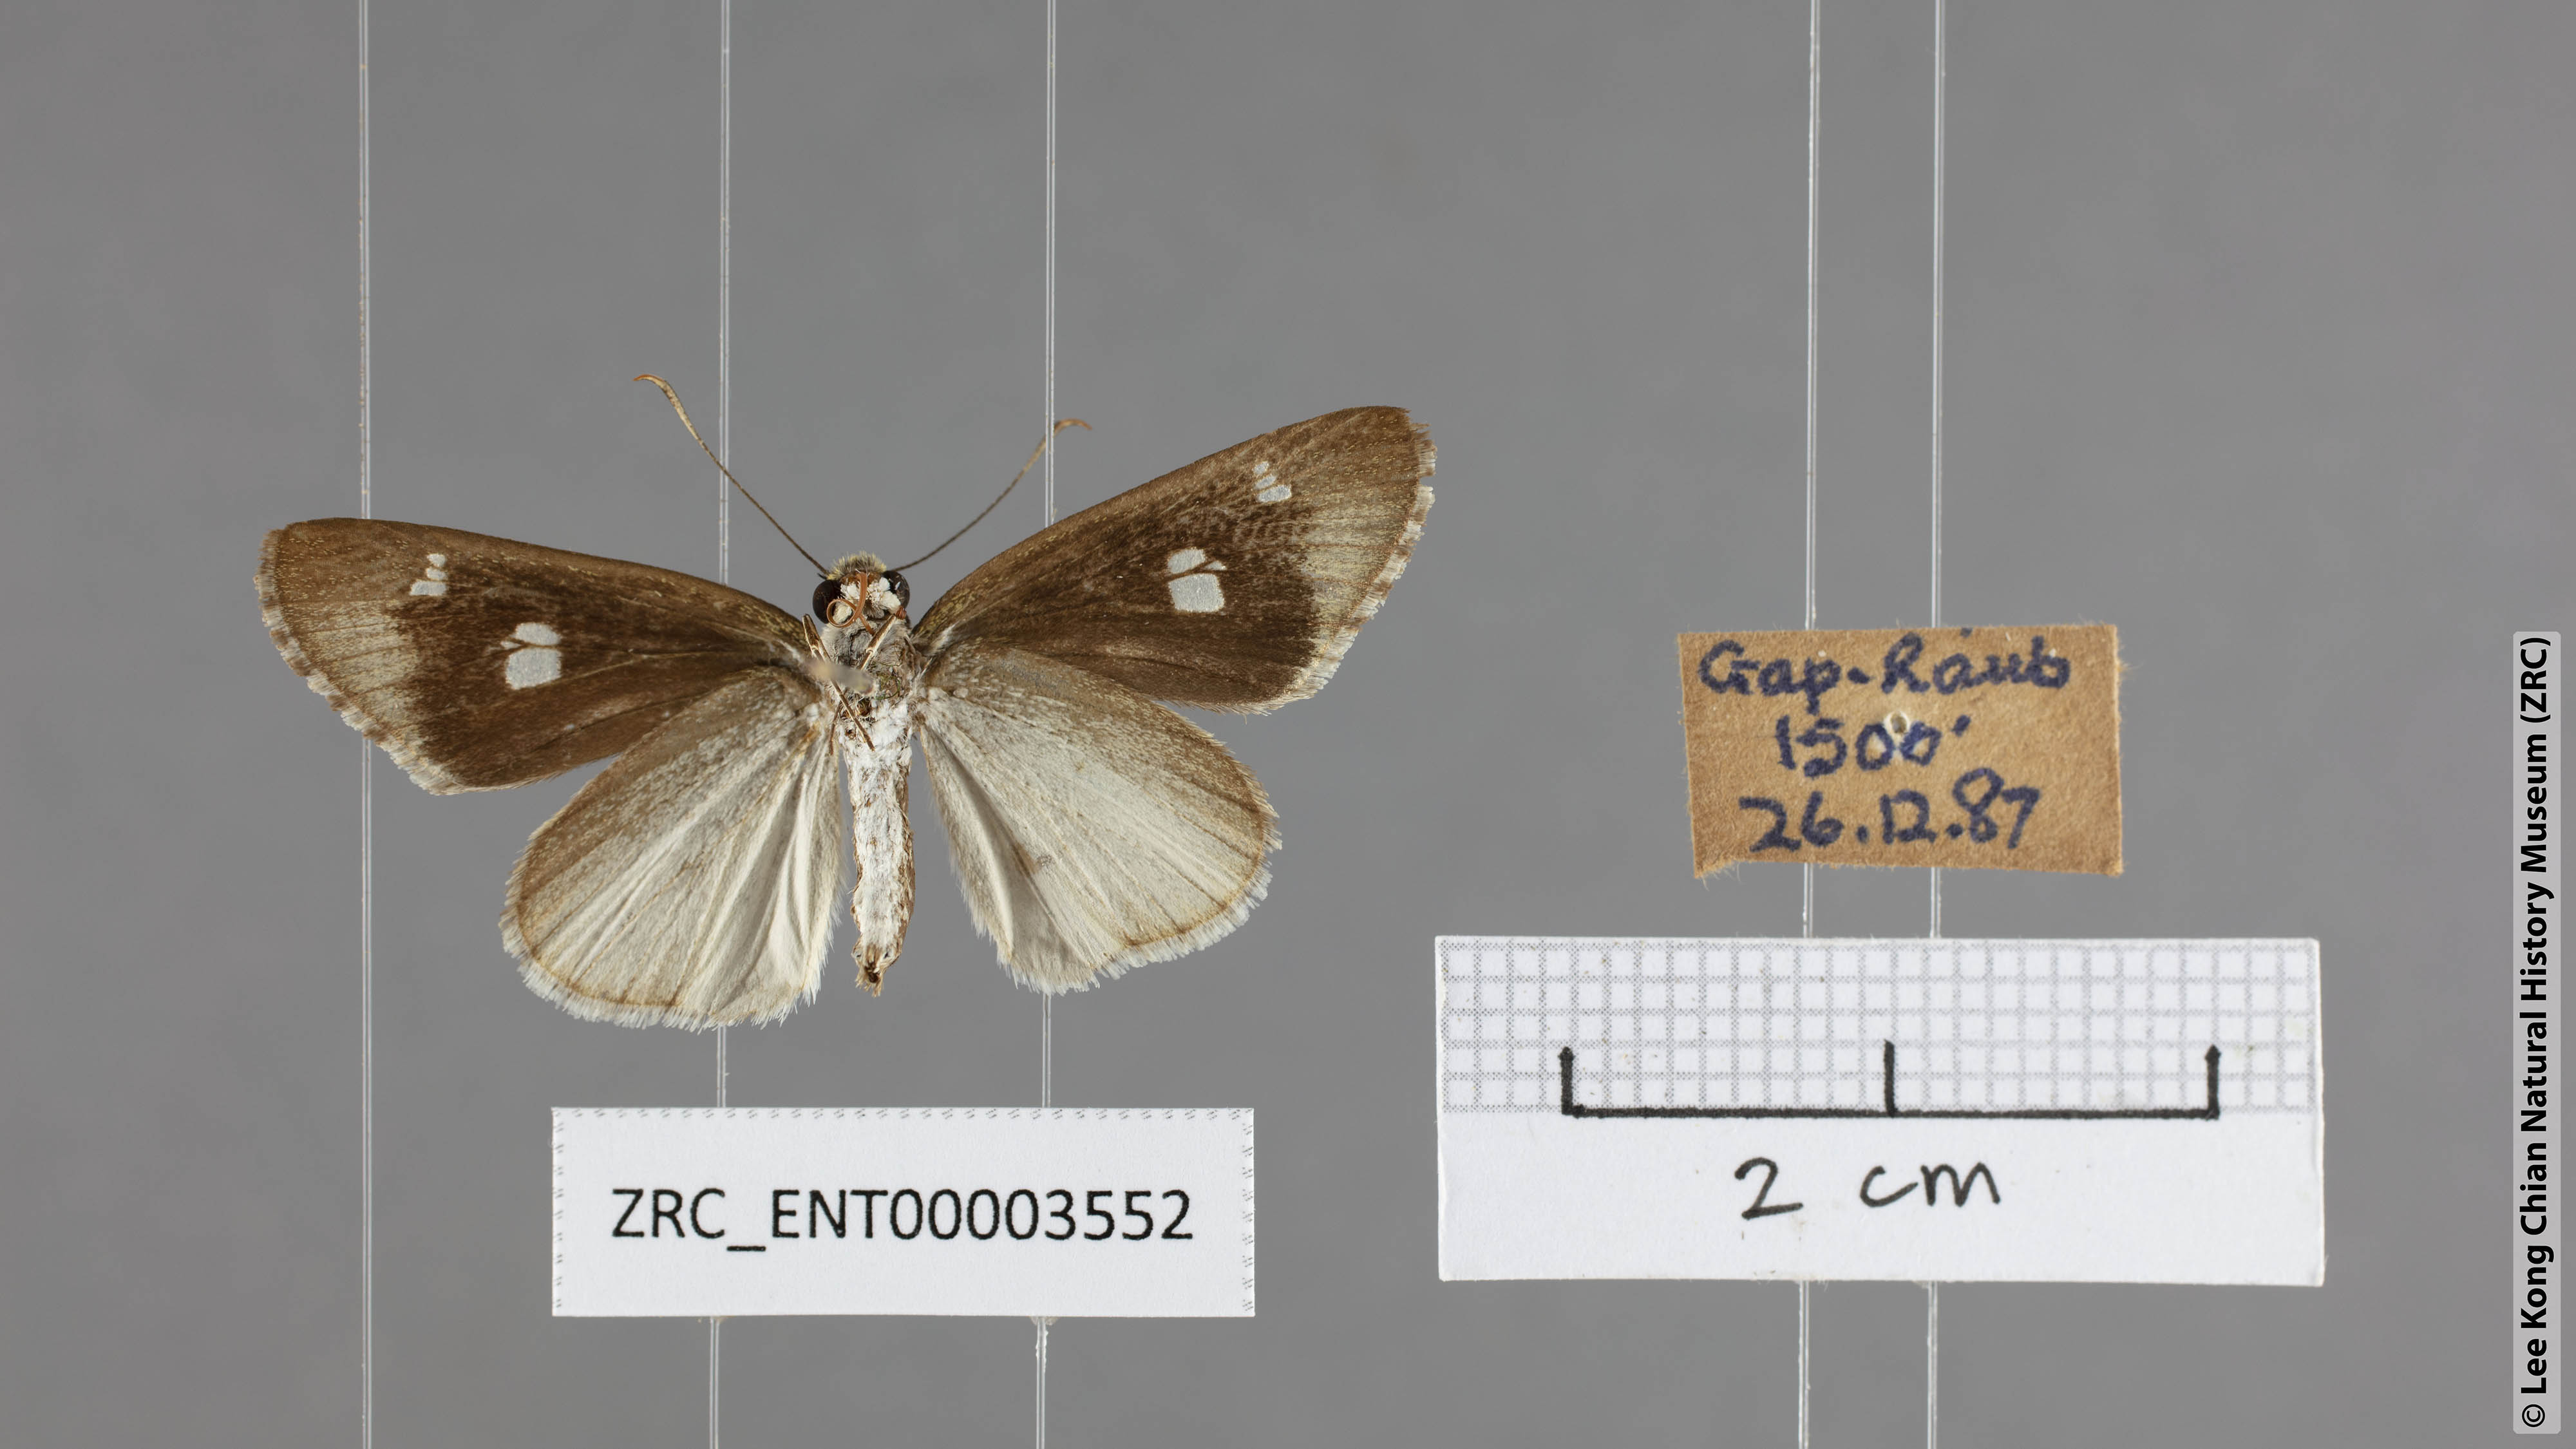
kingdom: Animalia
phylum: Arthropoda
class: Insecta
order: Lepidoptera
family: Hesperiidae
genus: Suada
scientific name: Suada swerga
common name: Grass bob
